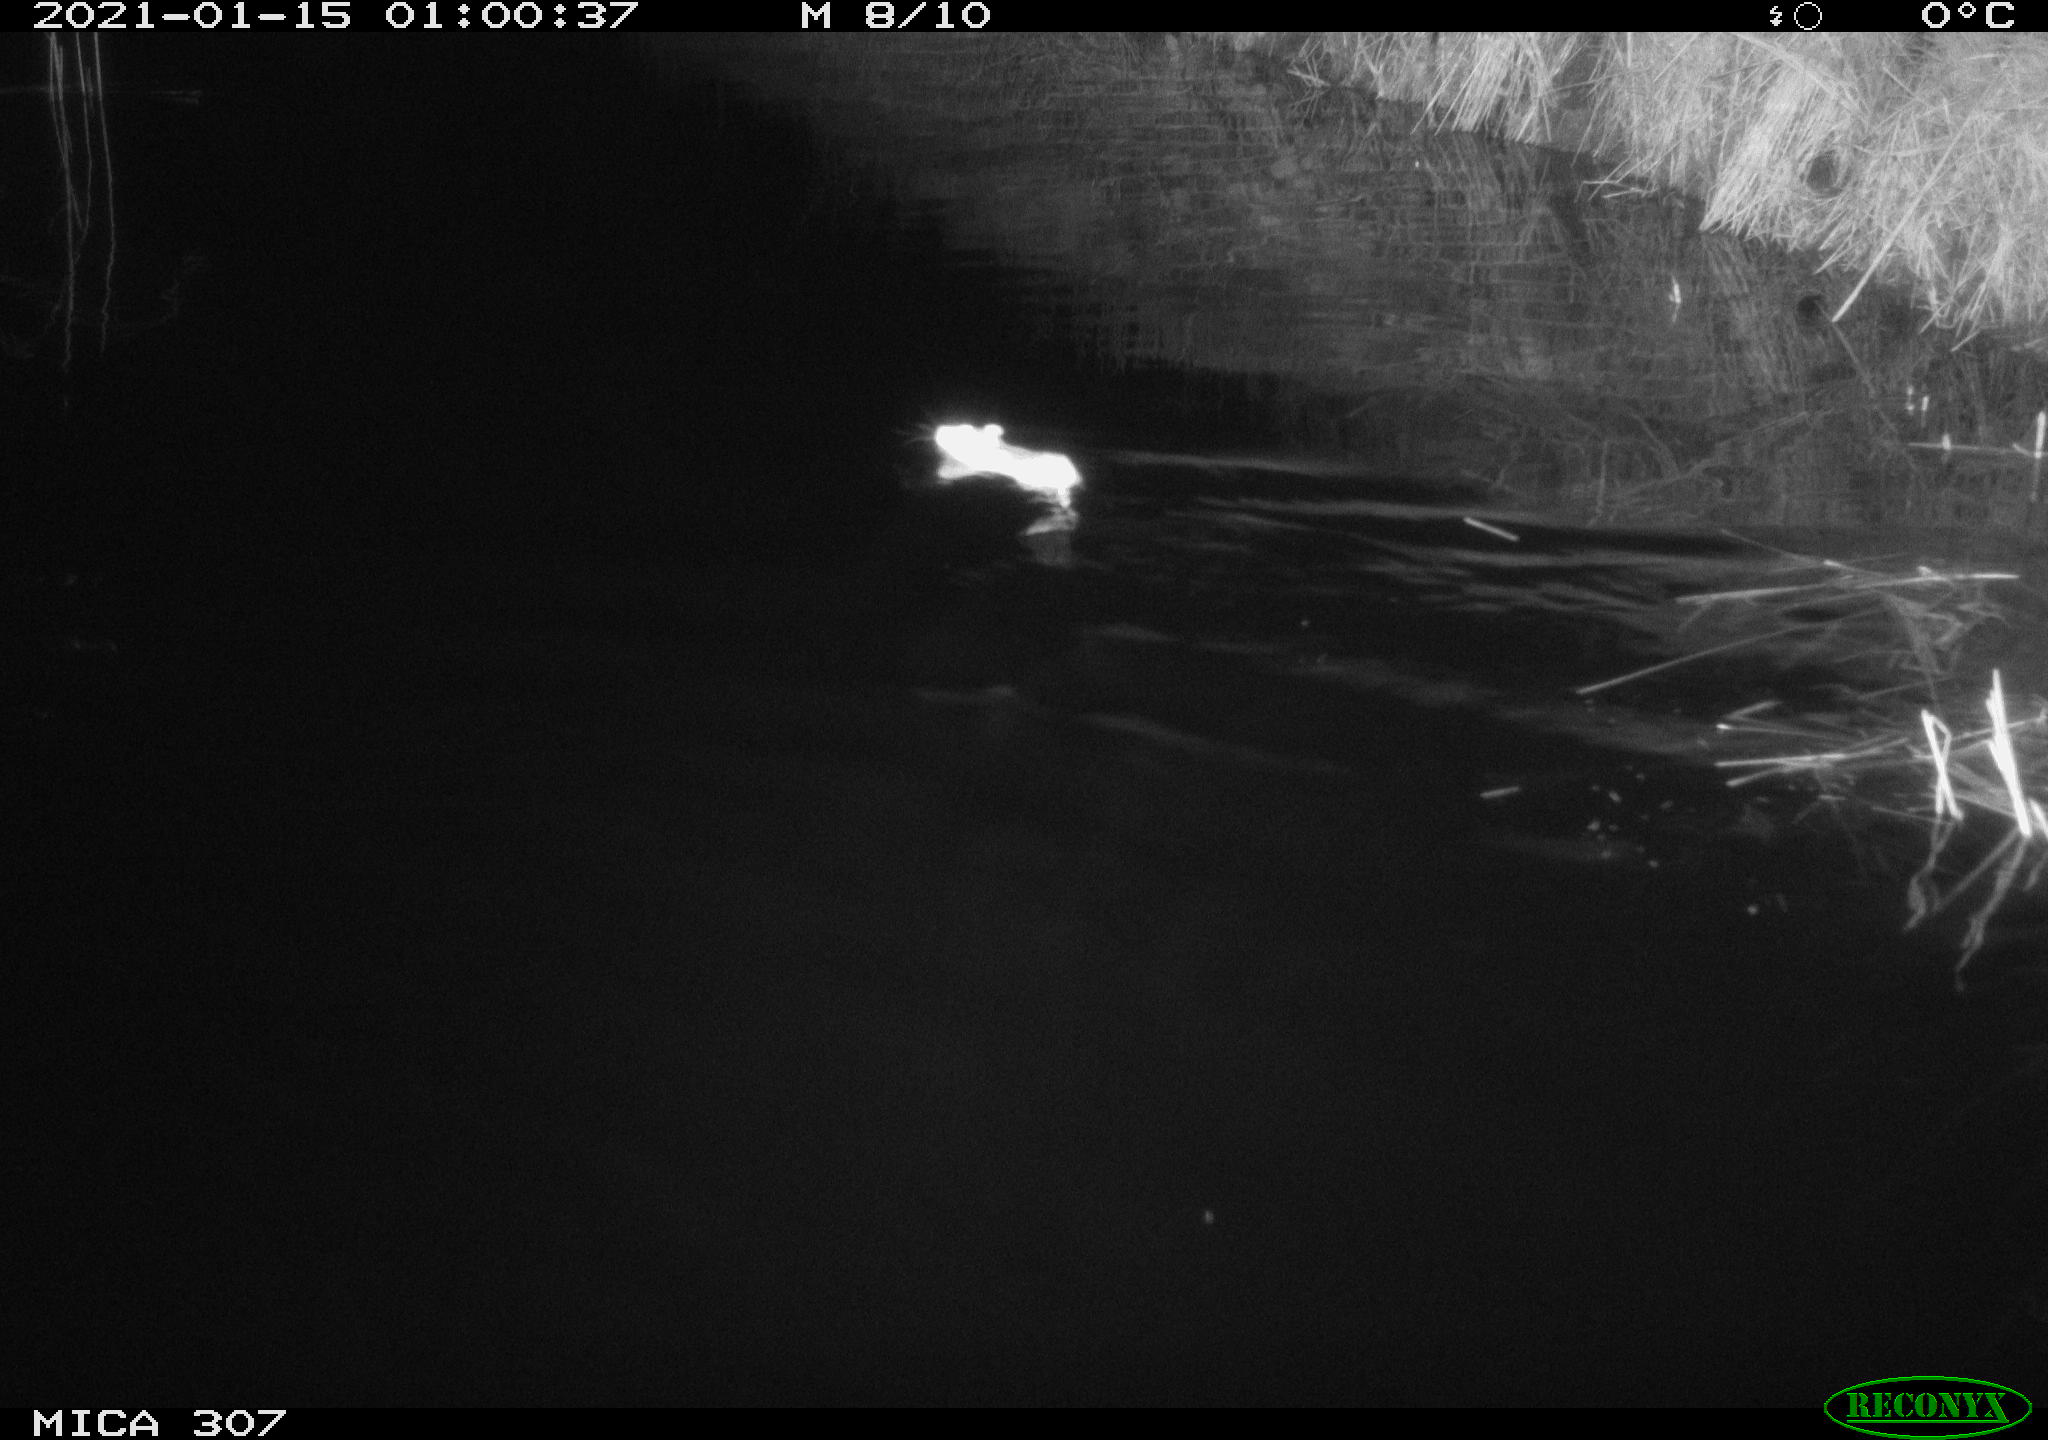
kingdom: Animalia
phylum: Chordata
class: Mammalia
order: Rodentia
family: Muridae
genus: Rattus
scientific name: Rattus norvegicus
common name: Brown rat
